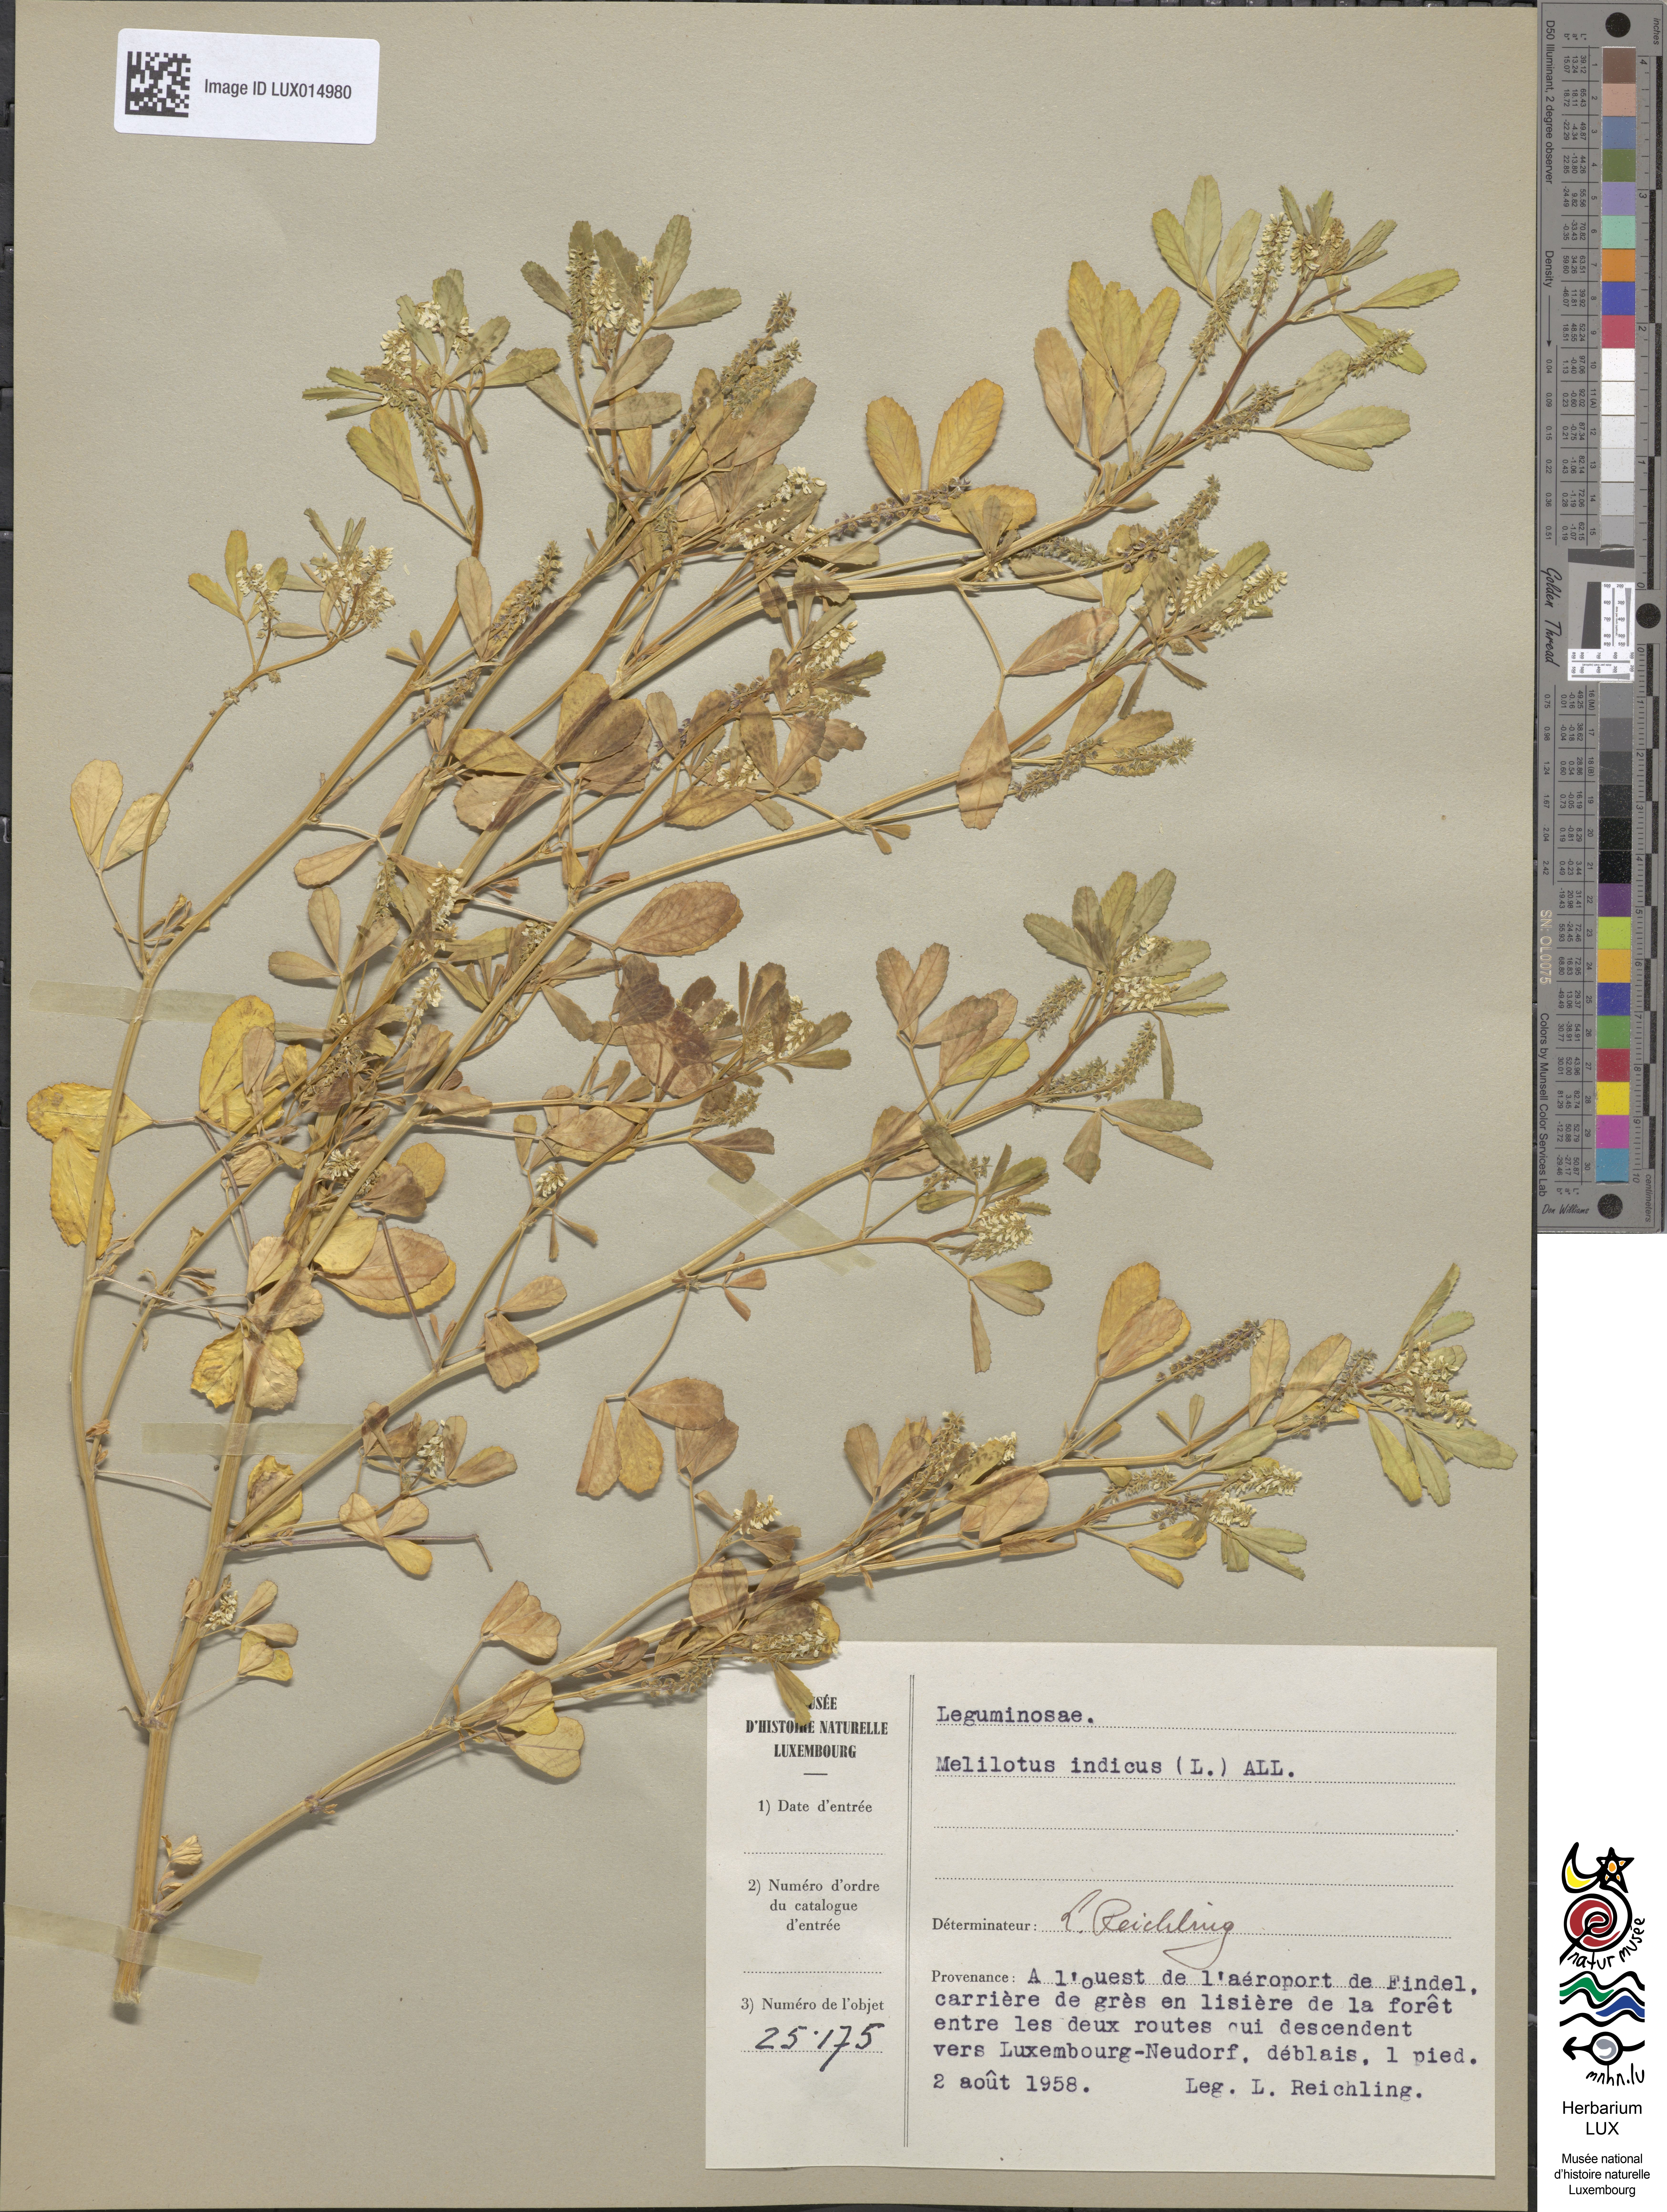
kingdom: Plantae
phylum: Tracheophyta
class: Magnoliopsida
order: Fabales
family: Fabaceae
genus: Melilotus
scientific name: Melilotus indicus
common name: Small melilot
